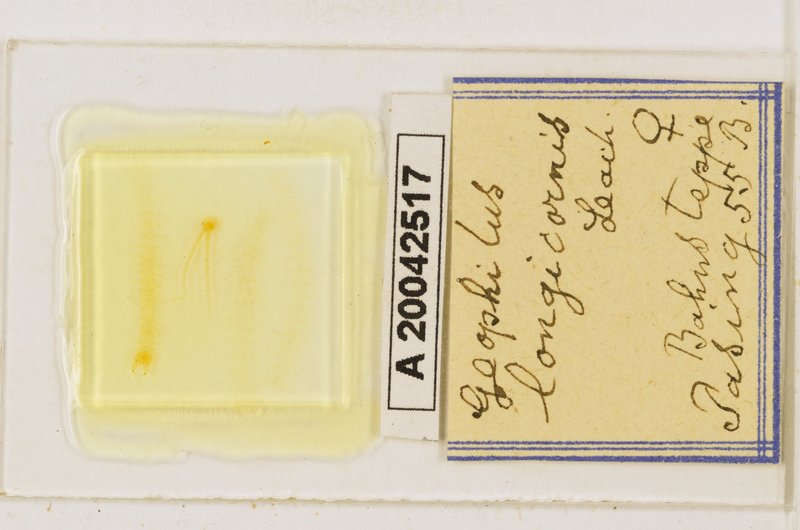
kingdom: Animalia
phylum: Arthropoda
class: Chilopoda
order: Geophilomorpha
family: Geophilidae
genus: Geophilus
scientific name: Geophilus flavus
